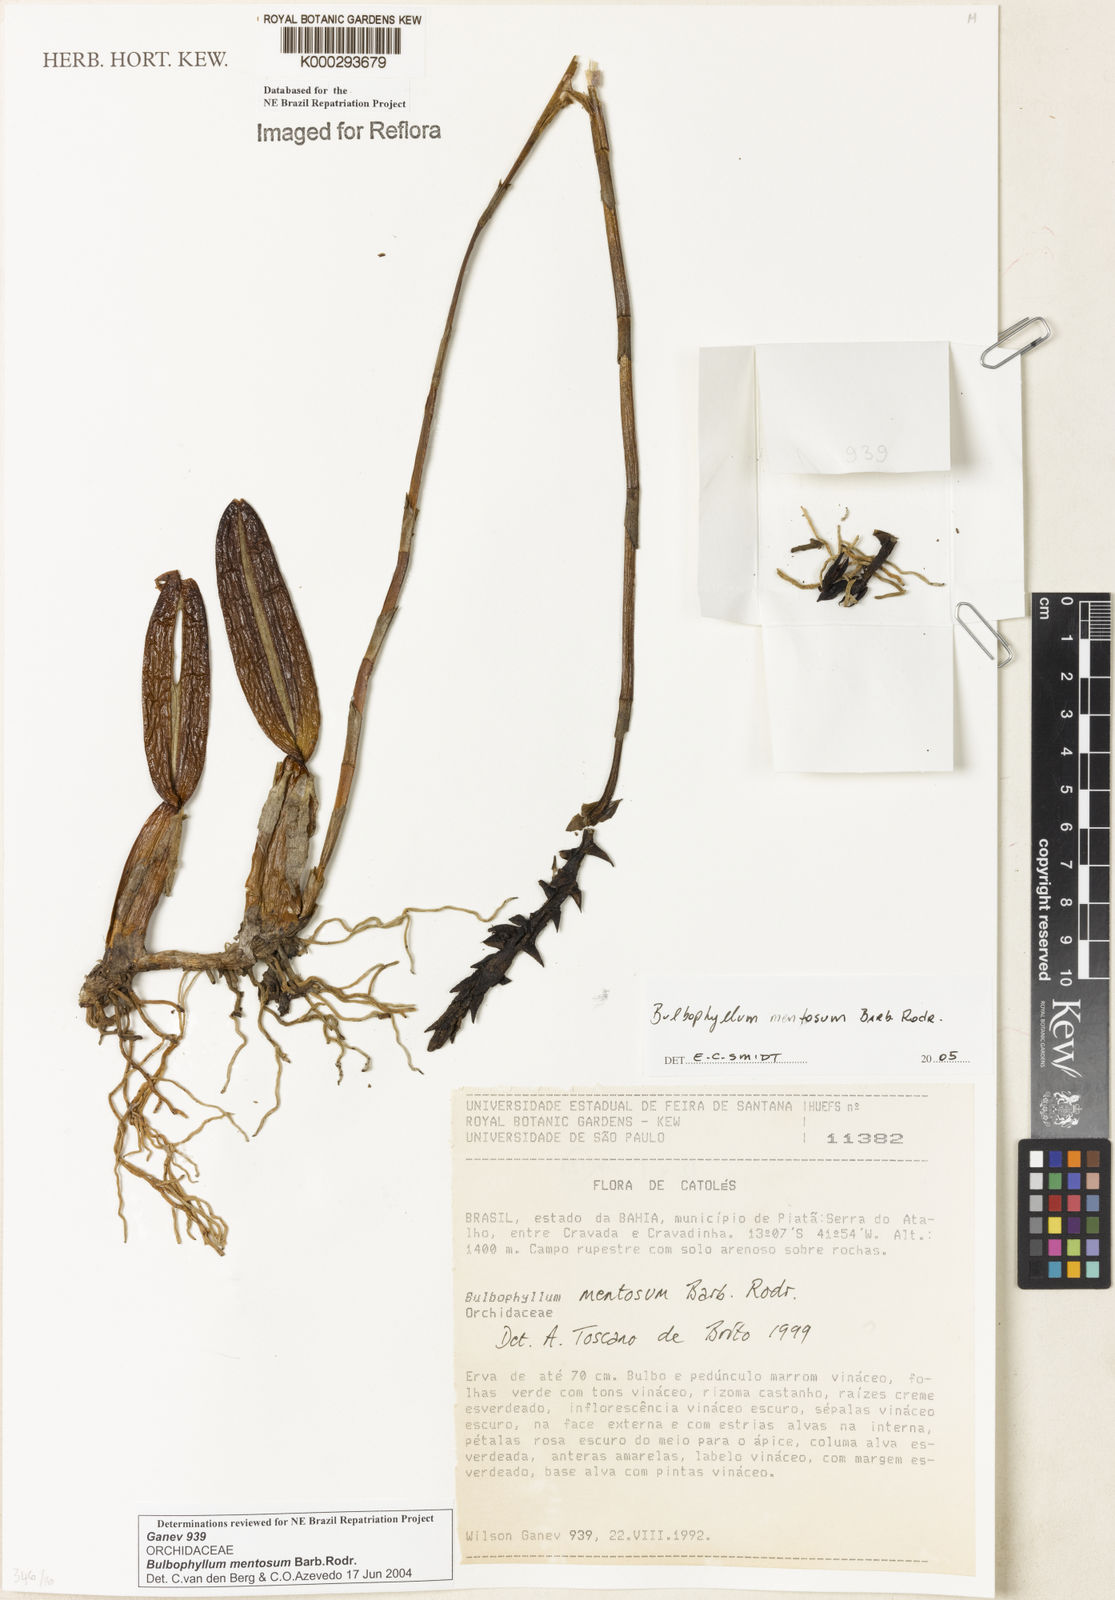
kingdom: Plantae
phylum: Tracheophyta
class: Liliopsida
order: Asparagales
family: Orchidaceae
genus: Bulbophyllum
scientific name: Bulbophyllum mentosum
